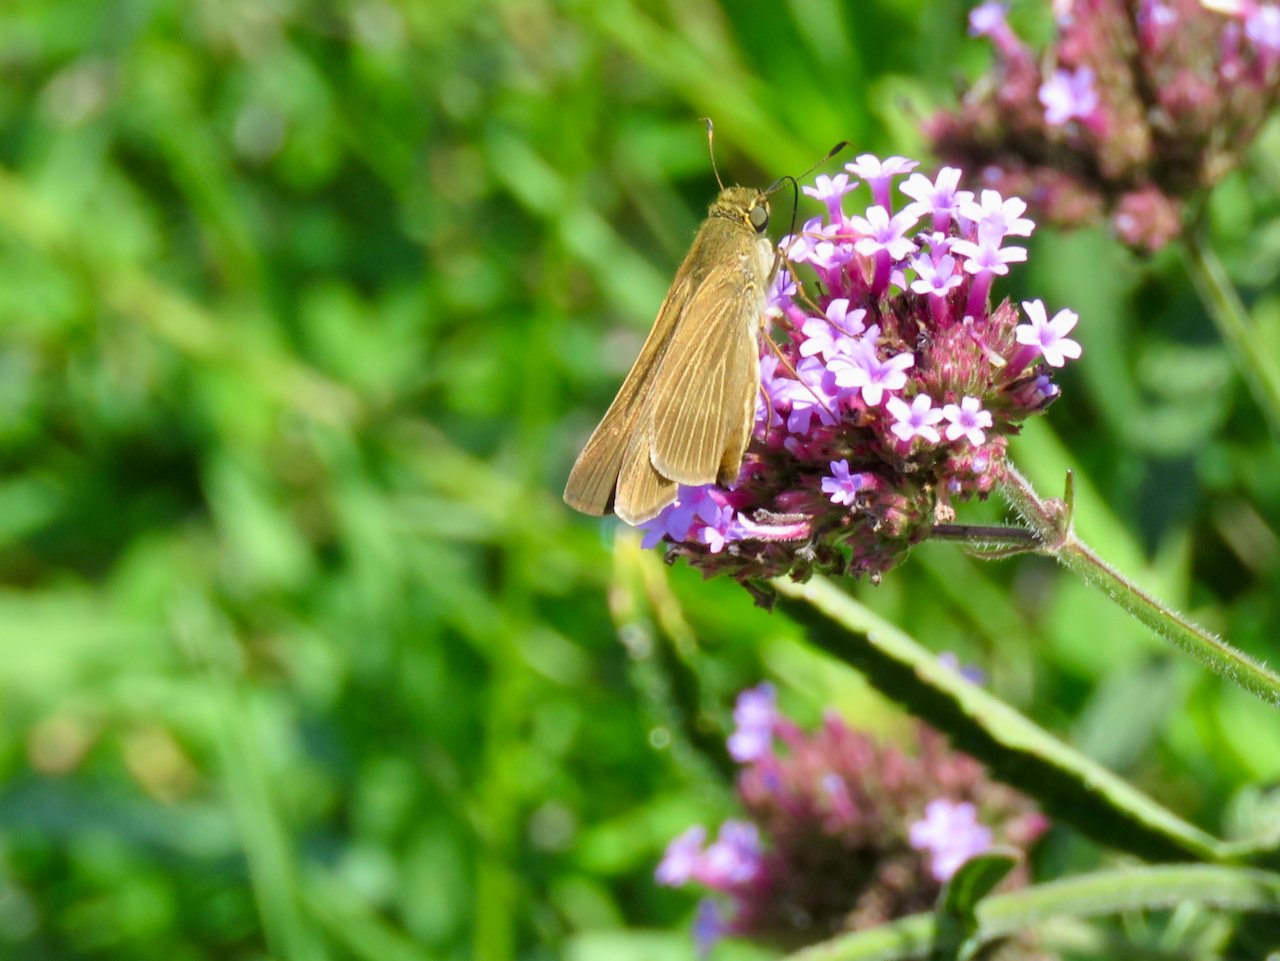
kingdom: Animalia
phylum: Arthropoda
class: Insecta
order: Lepidoptera
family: Hesperiidae
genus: Panoquina
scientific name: Panoquina ocola
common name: Ocola Skipper
